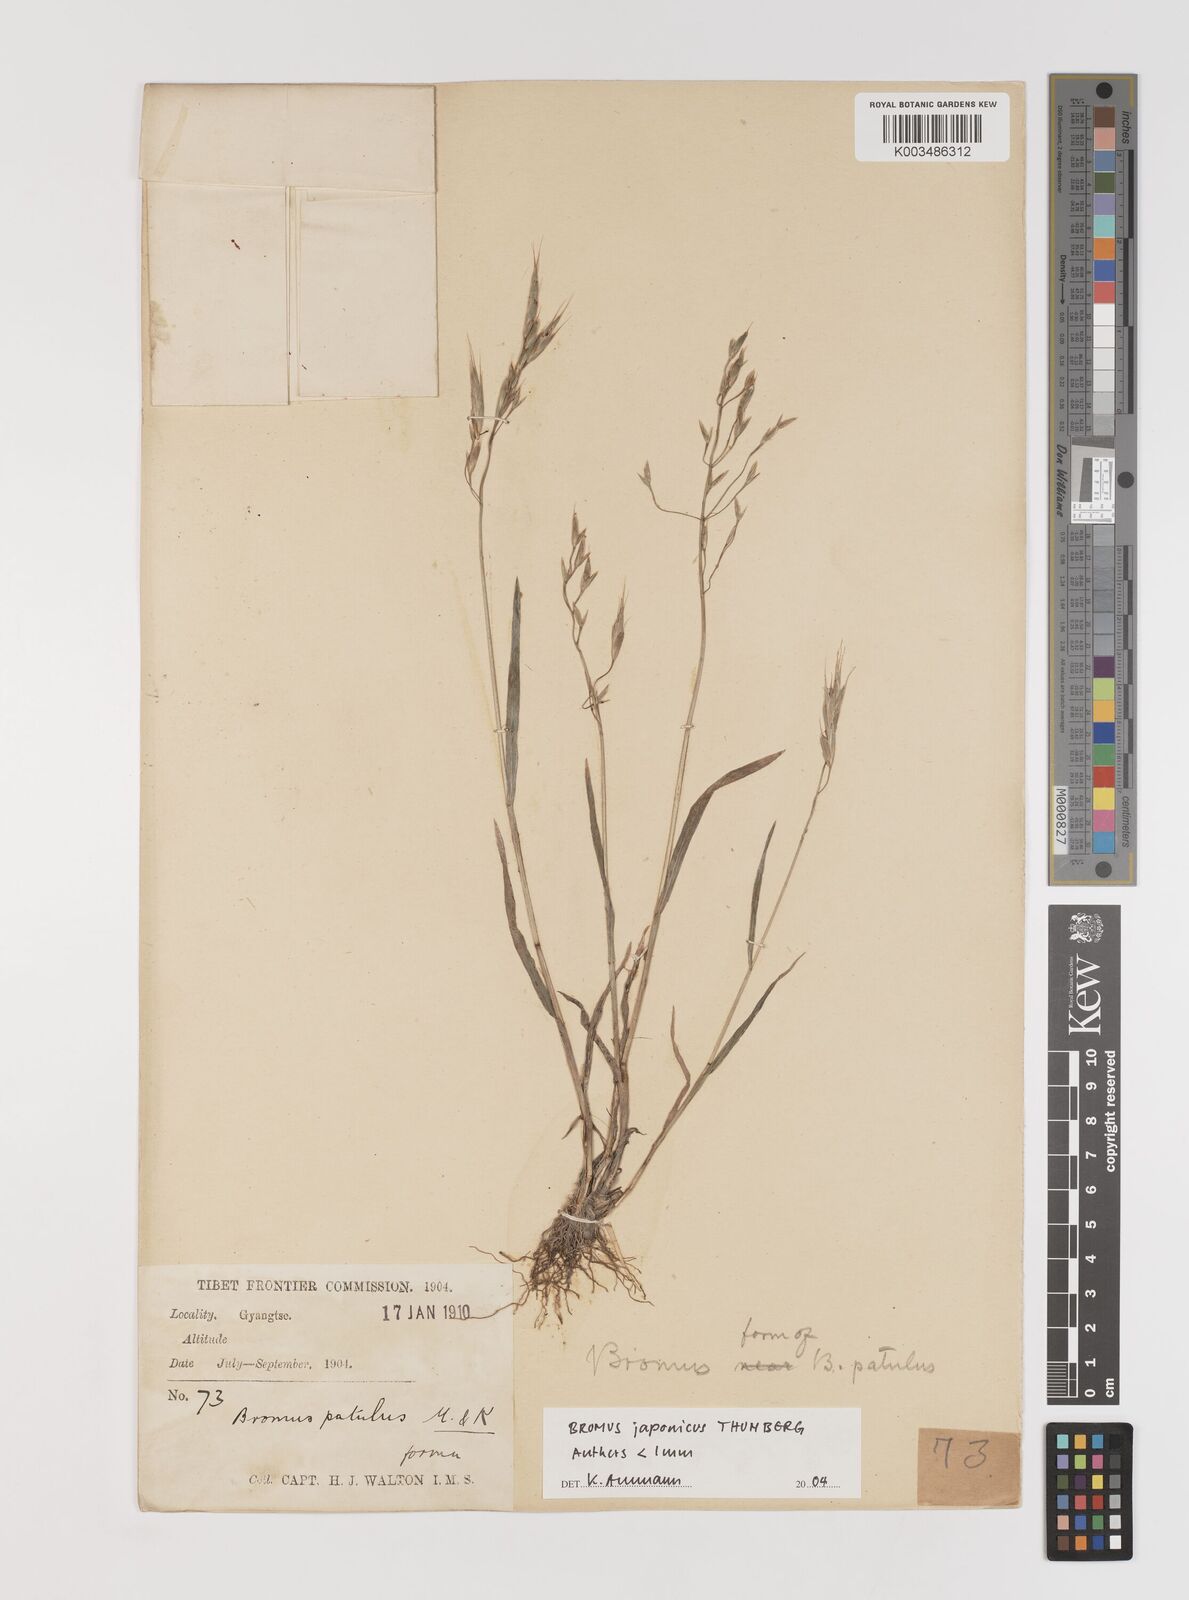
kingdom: Plantae
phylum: Tracheophyta
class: Liliopsida
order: Poales
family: Poaceae
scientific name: Poaceae
